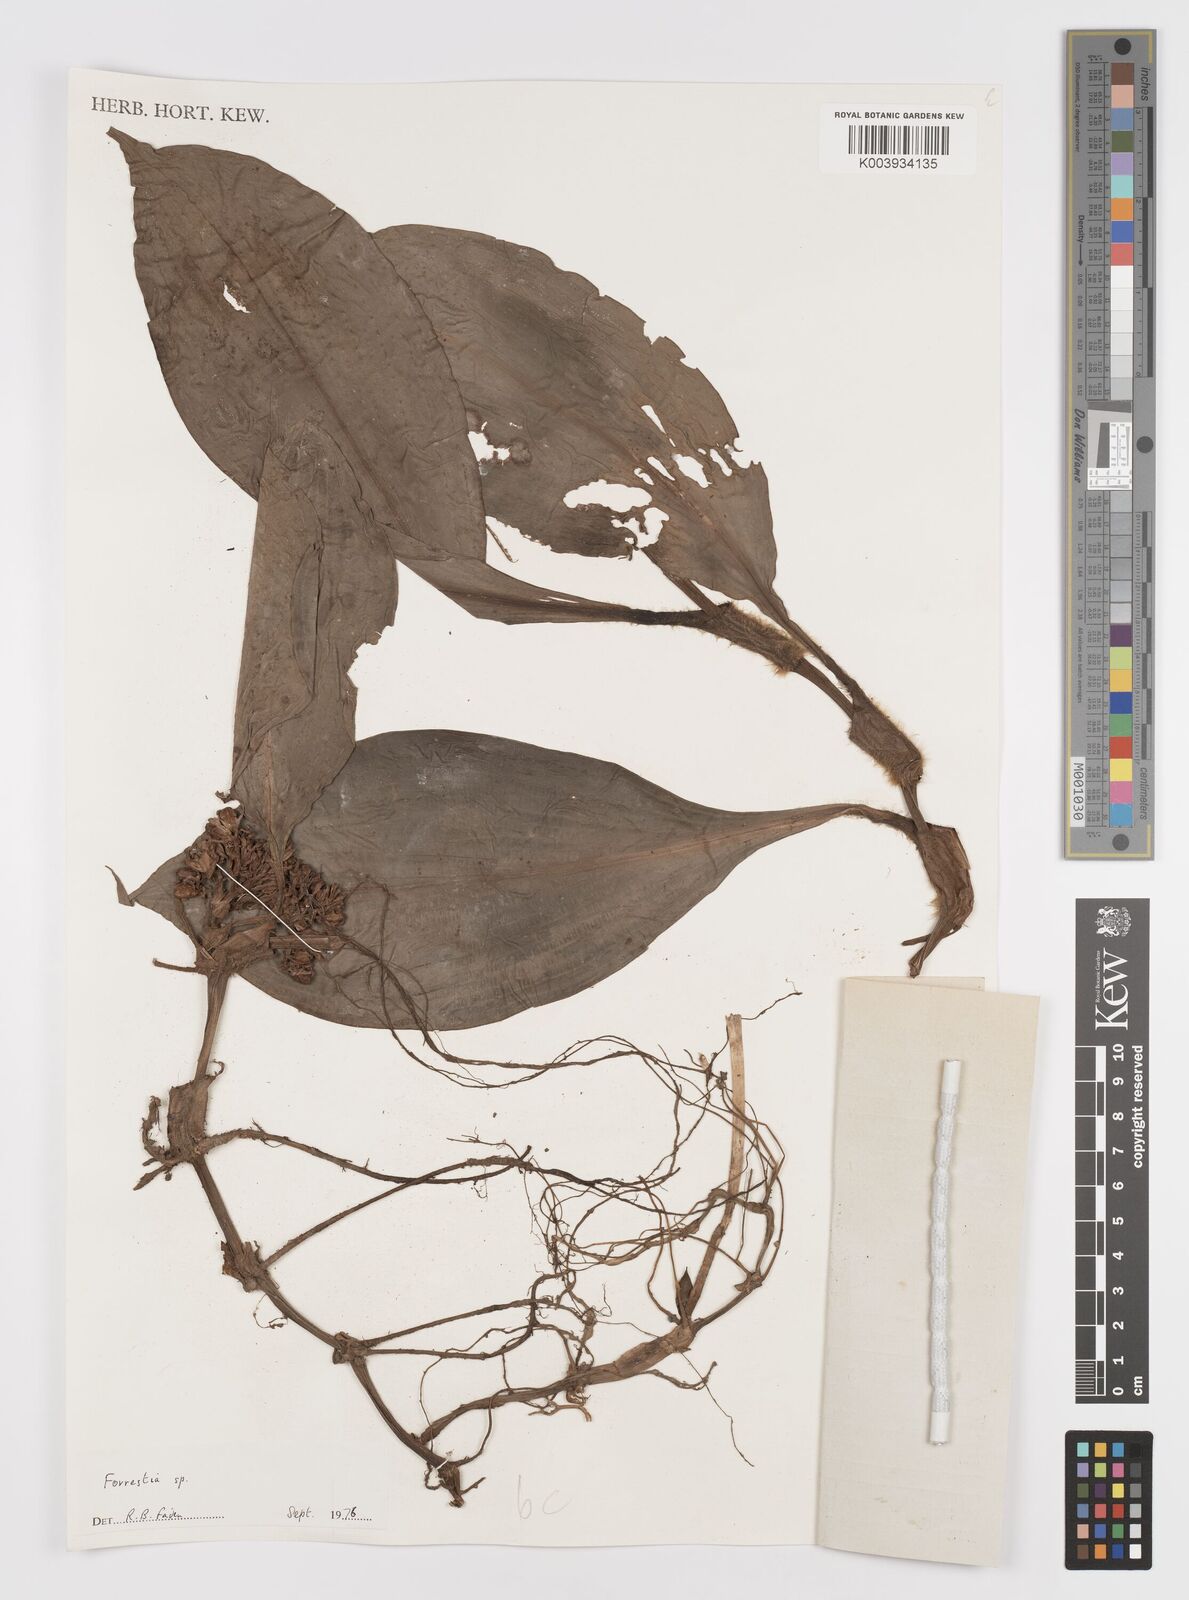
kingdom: Plantae
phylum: Tracheophyta
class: Liliopsida
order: Commelinales
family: Commelinaceae
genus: Amischotolype
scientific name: Amischotolype
